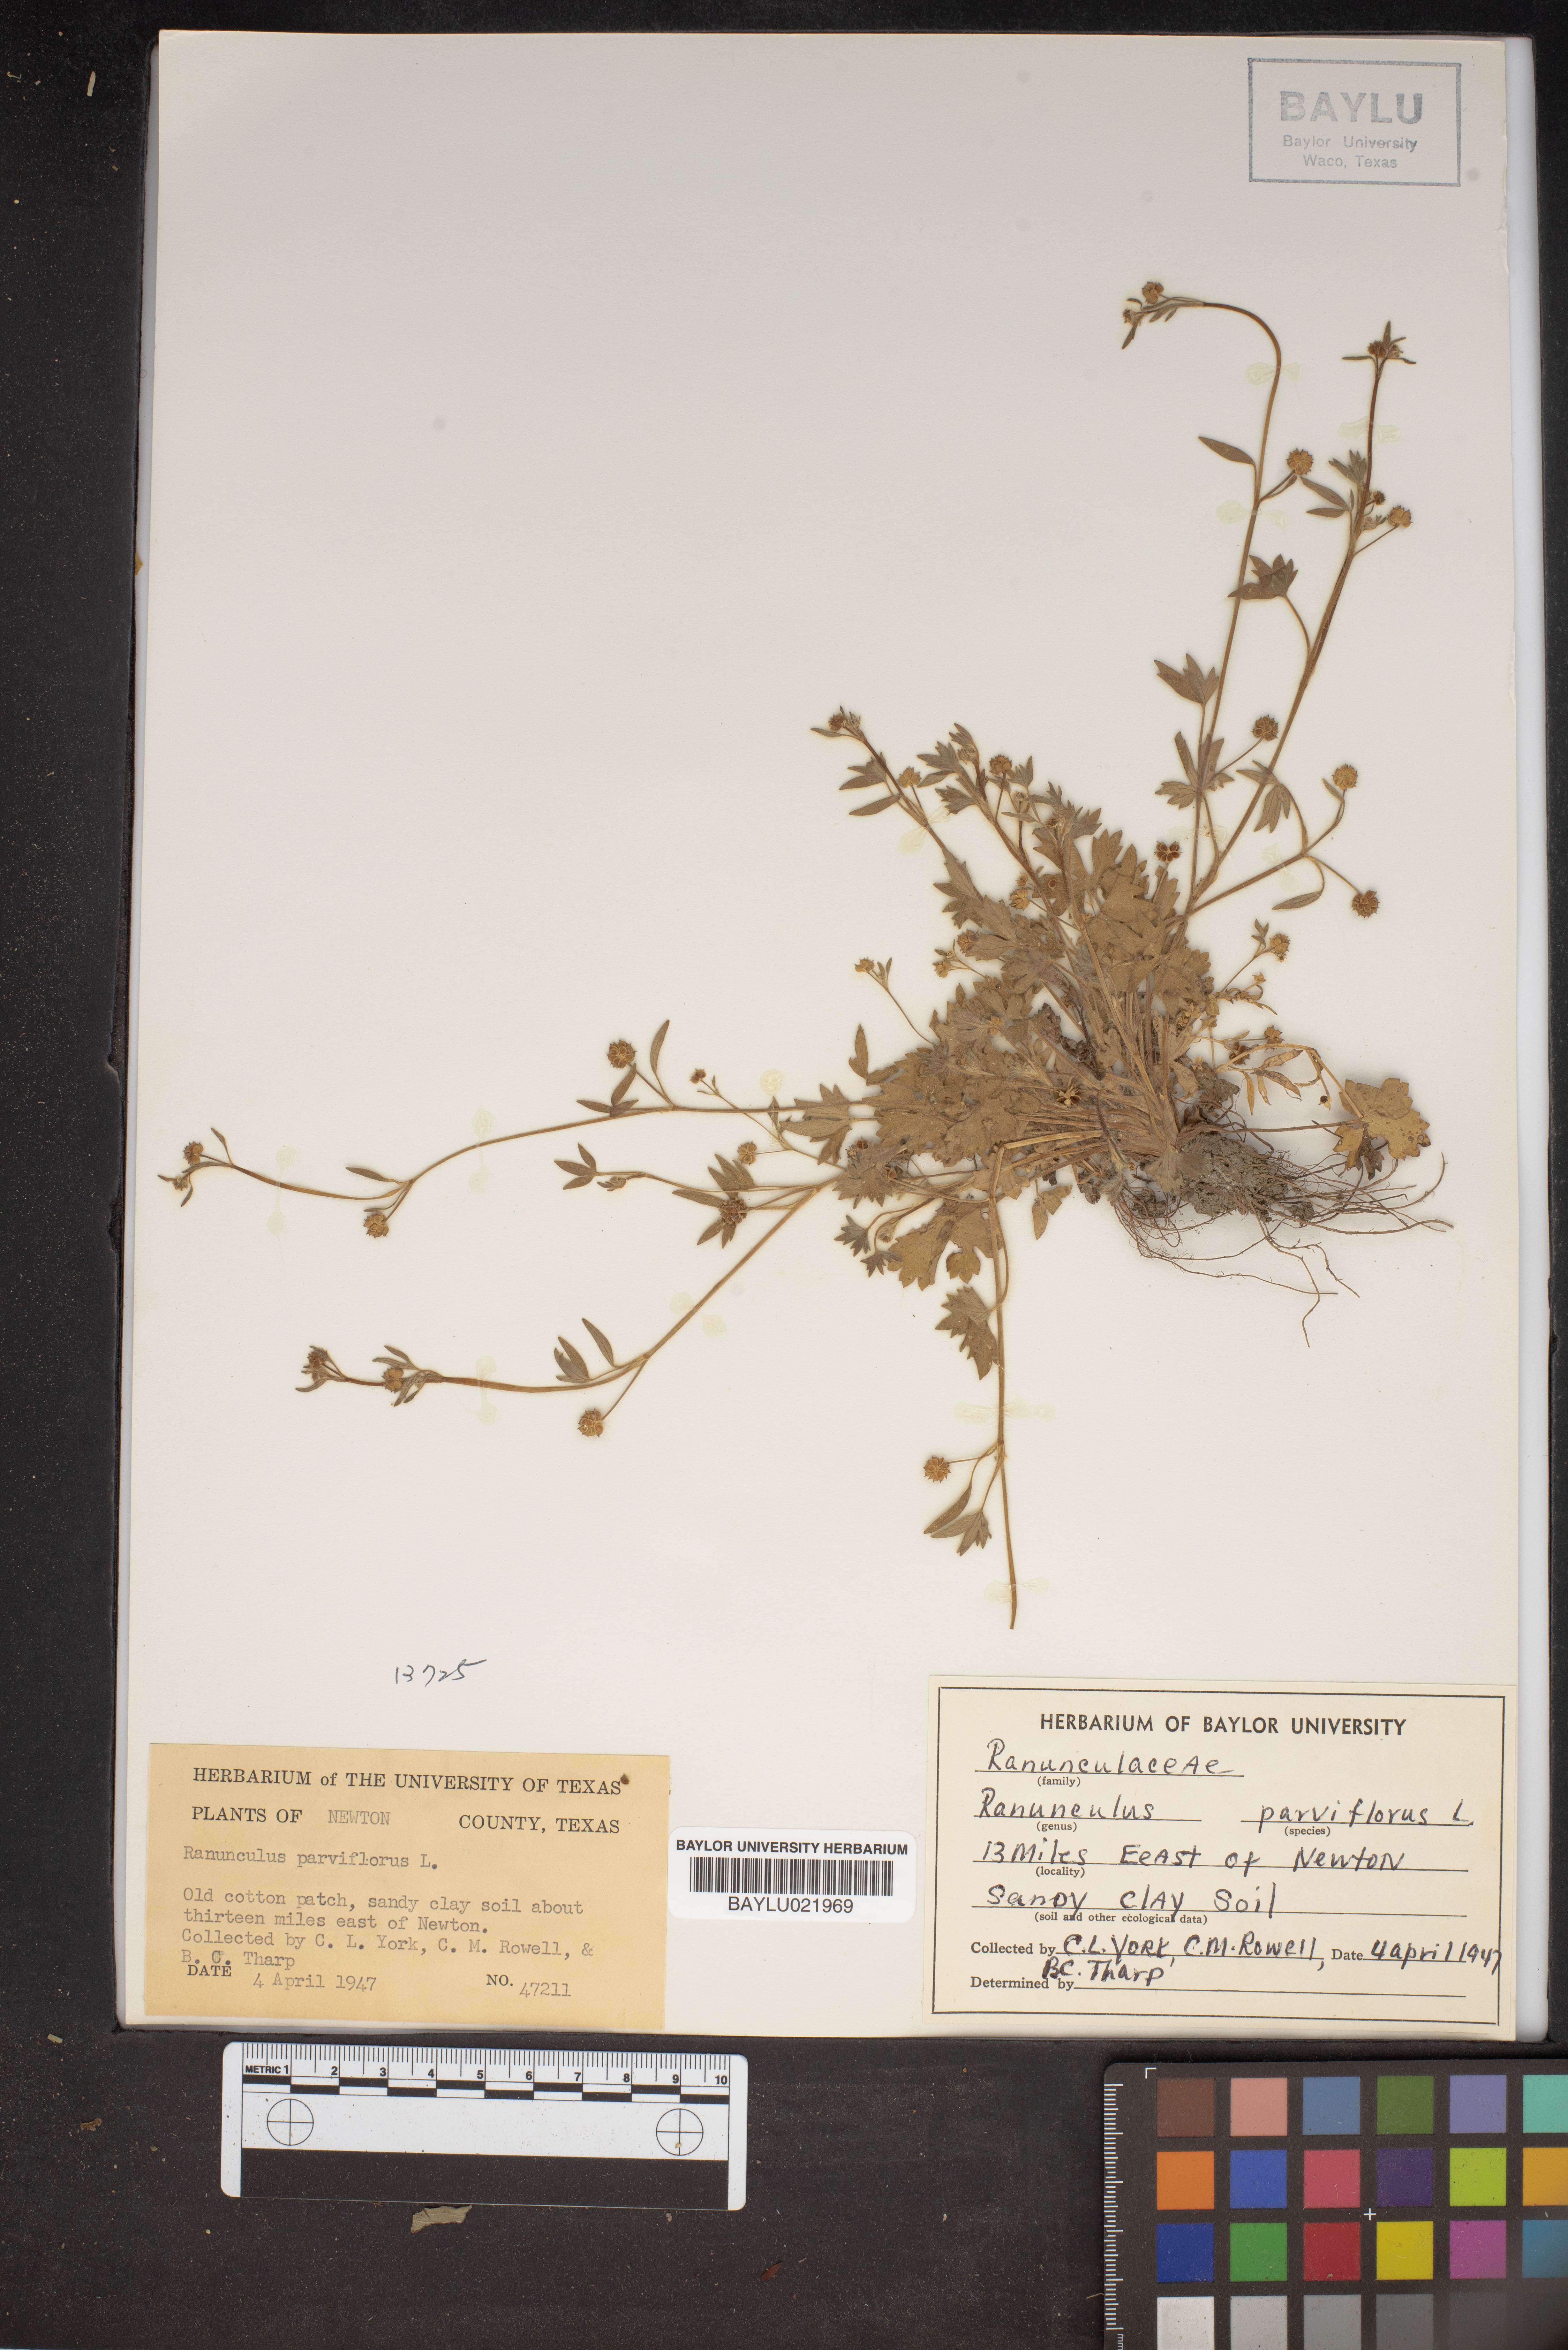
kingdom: Plantae
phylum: Tracheophyta
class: Magnoliopsida
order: Ranunculales
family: Ranunculaceae
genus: Ranunculus
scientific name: Ranunculus parviflorus
